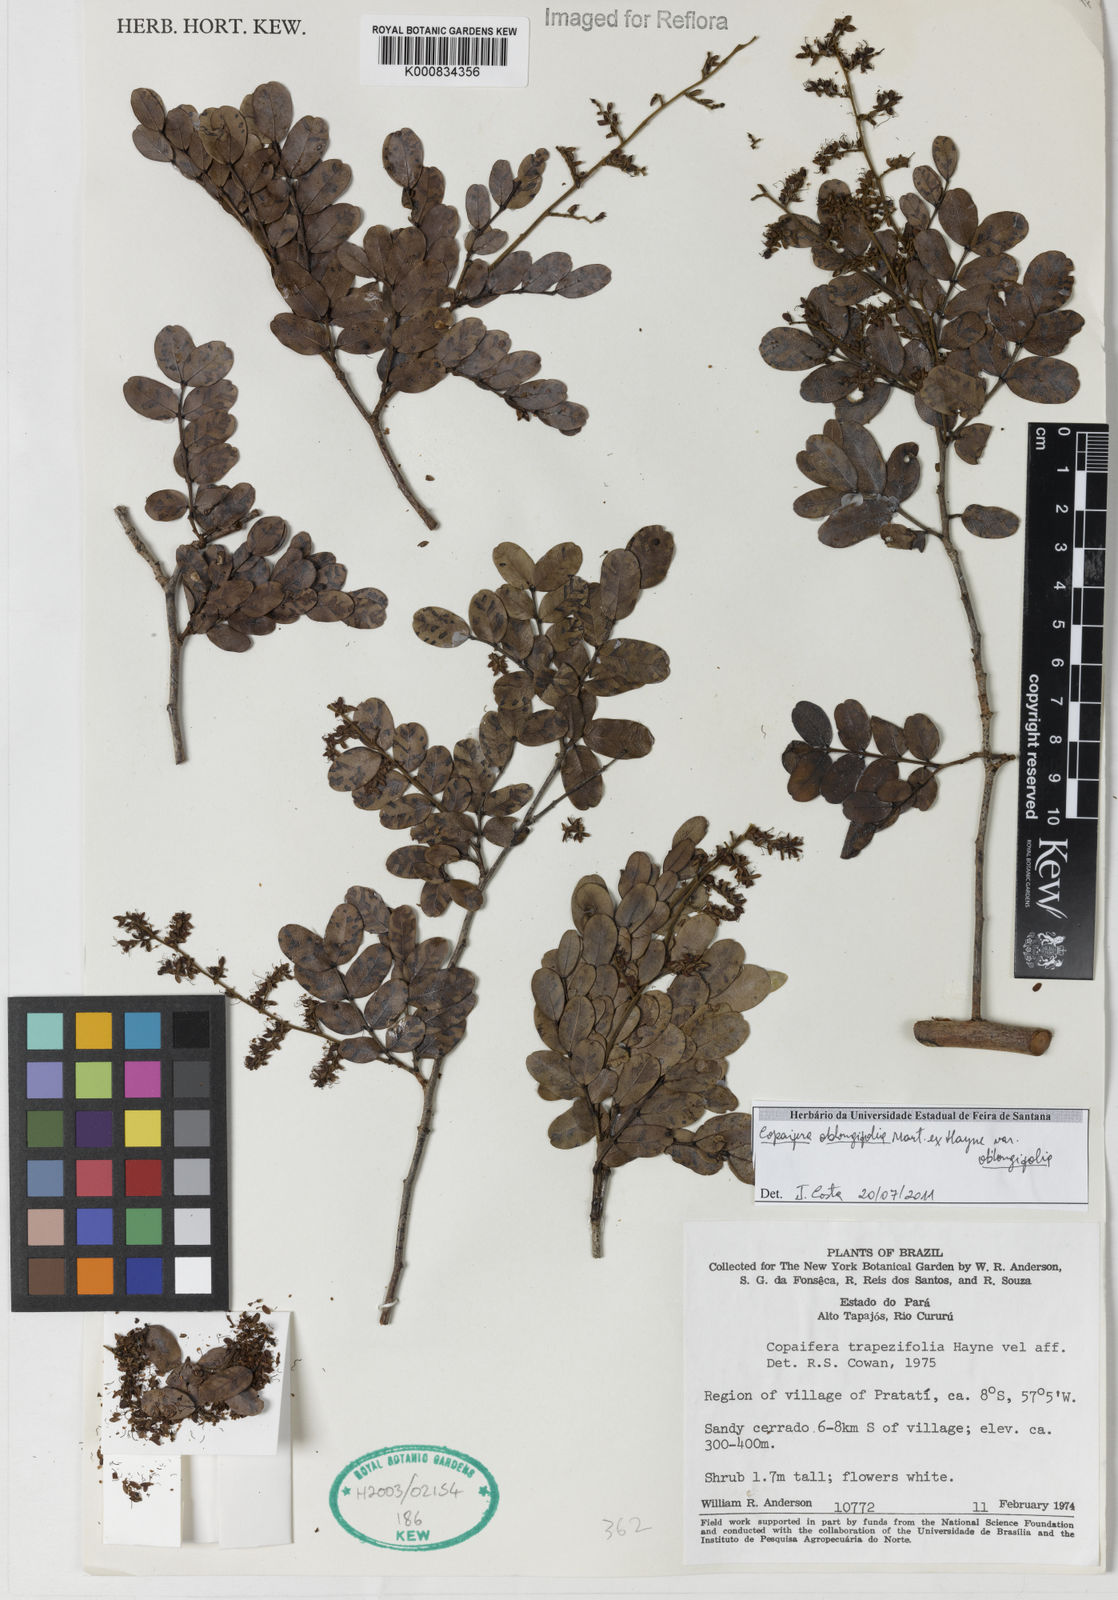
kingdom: Plantae
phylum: Tracheophyta
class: Magnoliopsida
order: Fabales
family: Fabaceae
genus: Copaifera
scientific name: Copaifera oblongifolia
